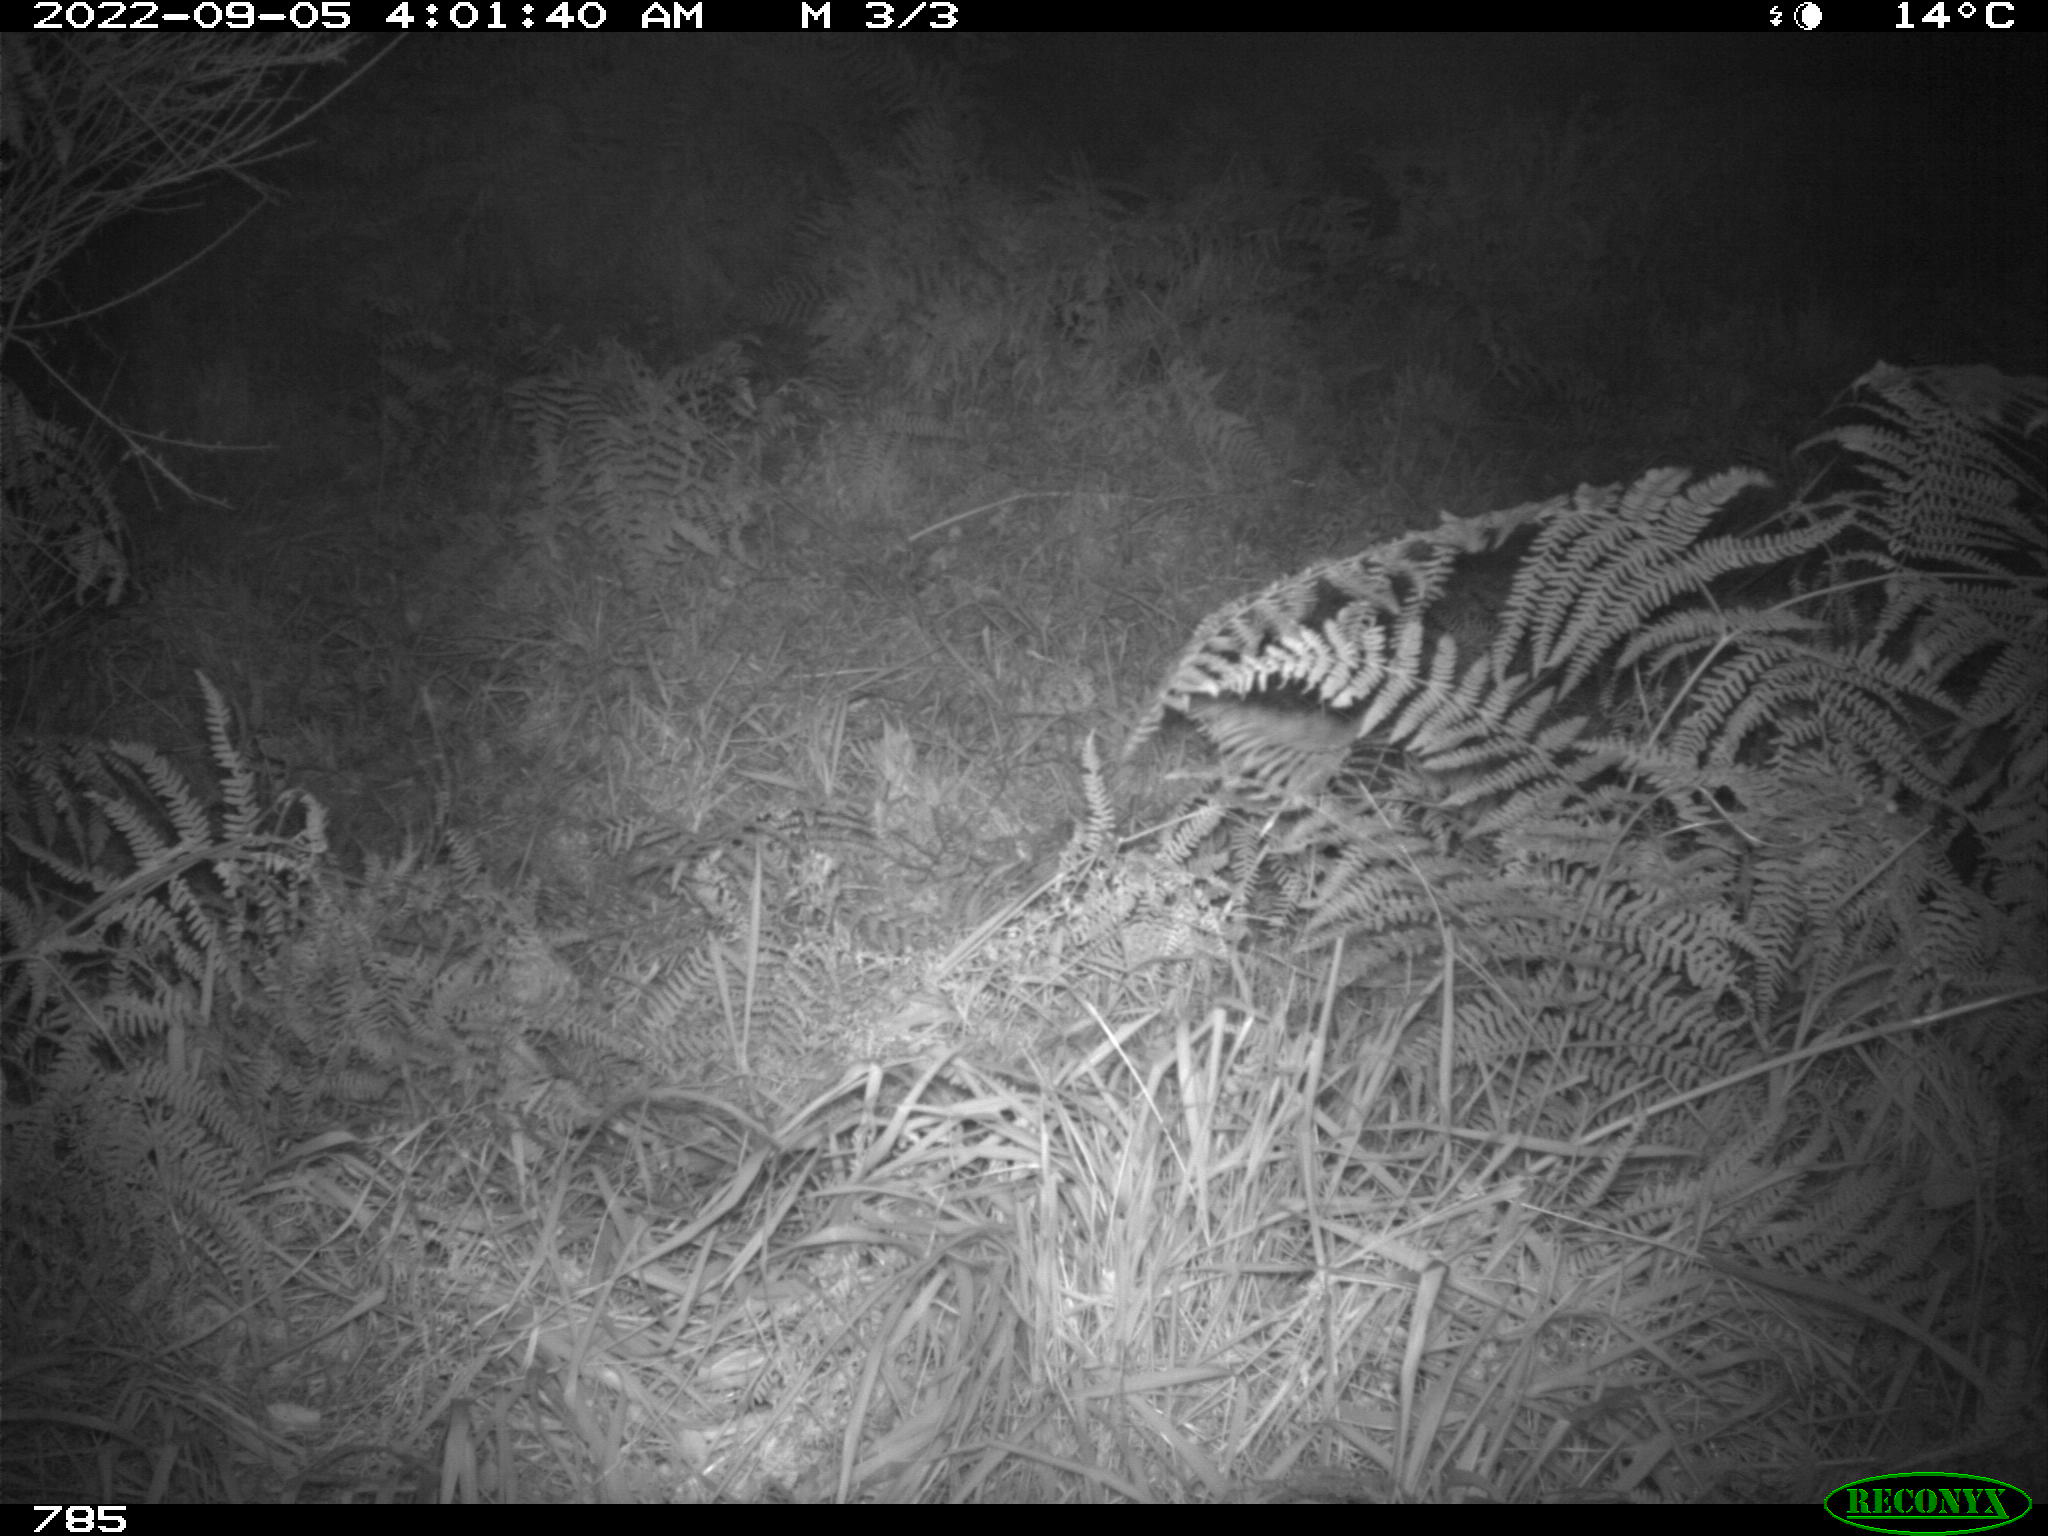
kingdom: Animalia
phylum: Chordata
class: Mammalia
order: Artiodactyla
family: Suidae
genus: Sus
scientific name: Sus scrofa
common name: Wild boar
